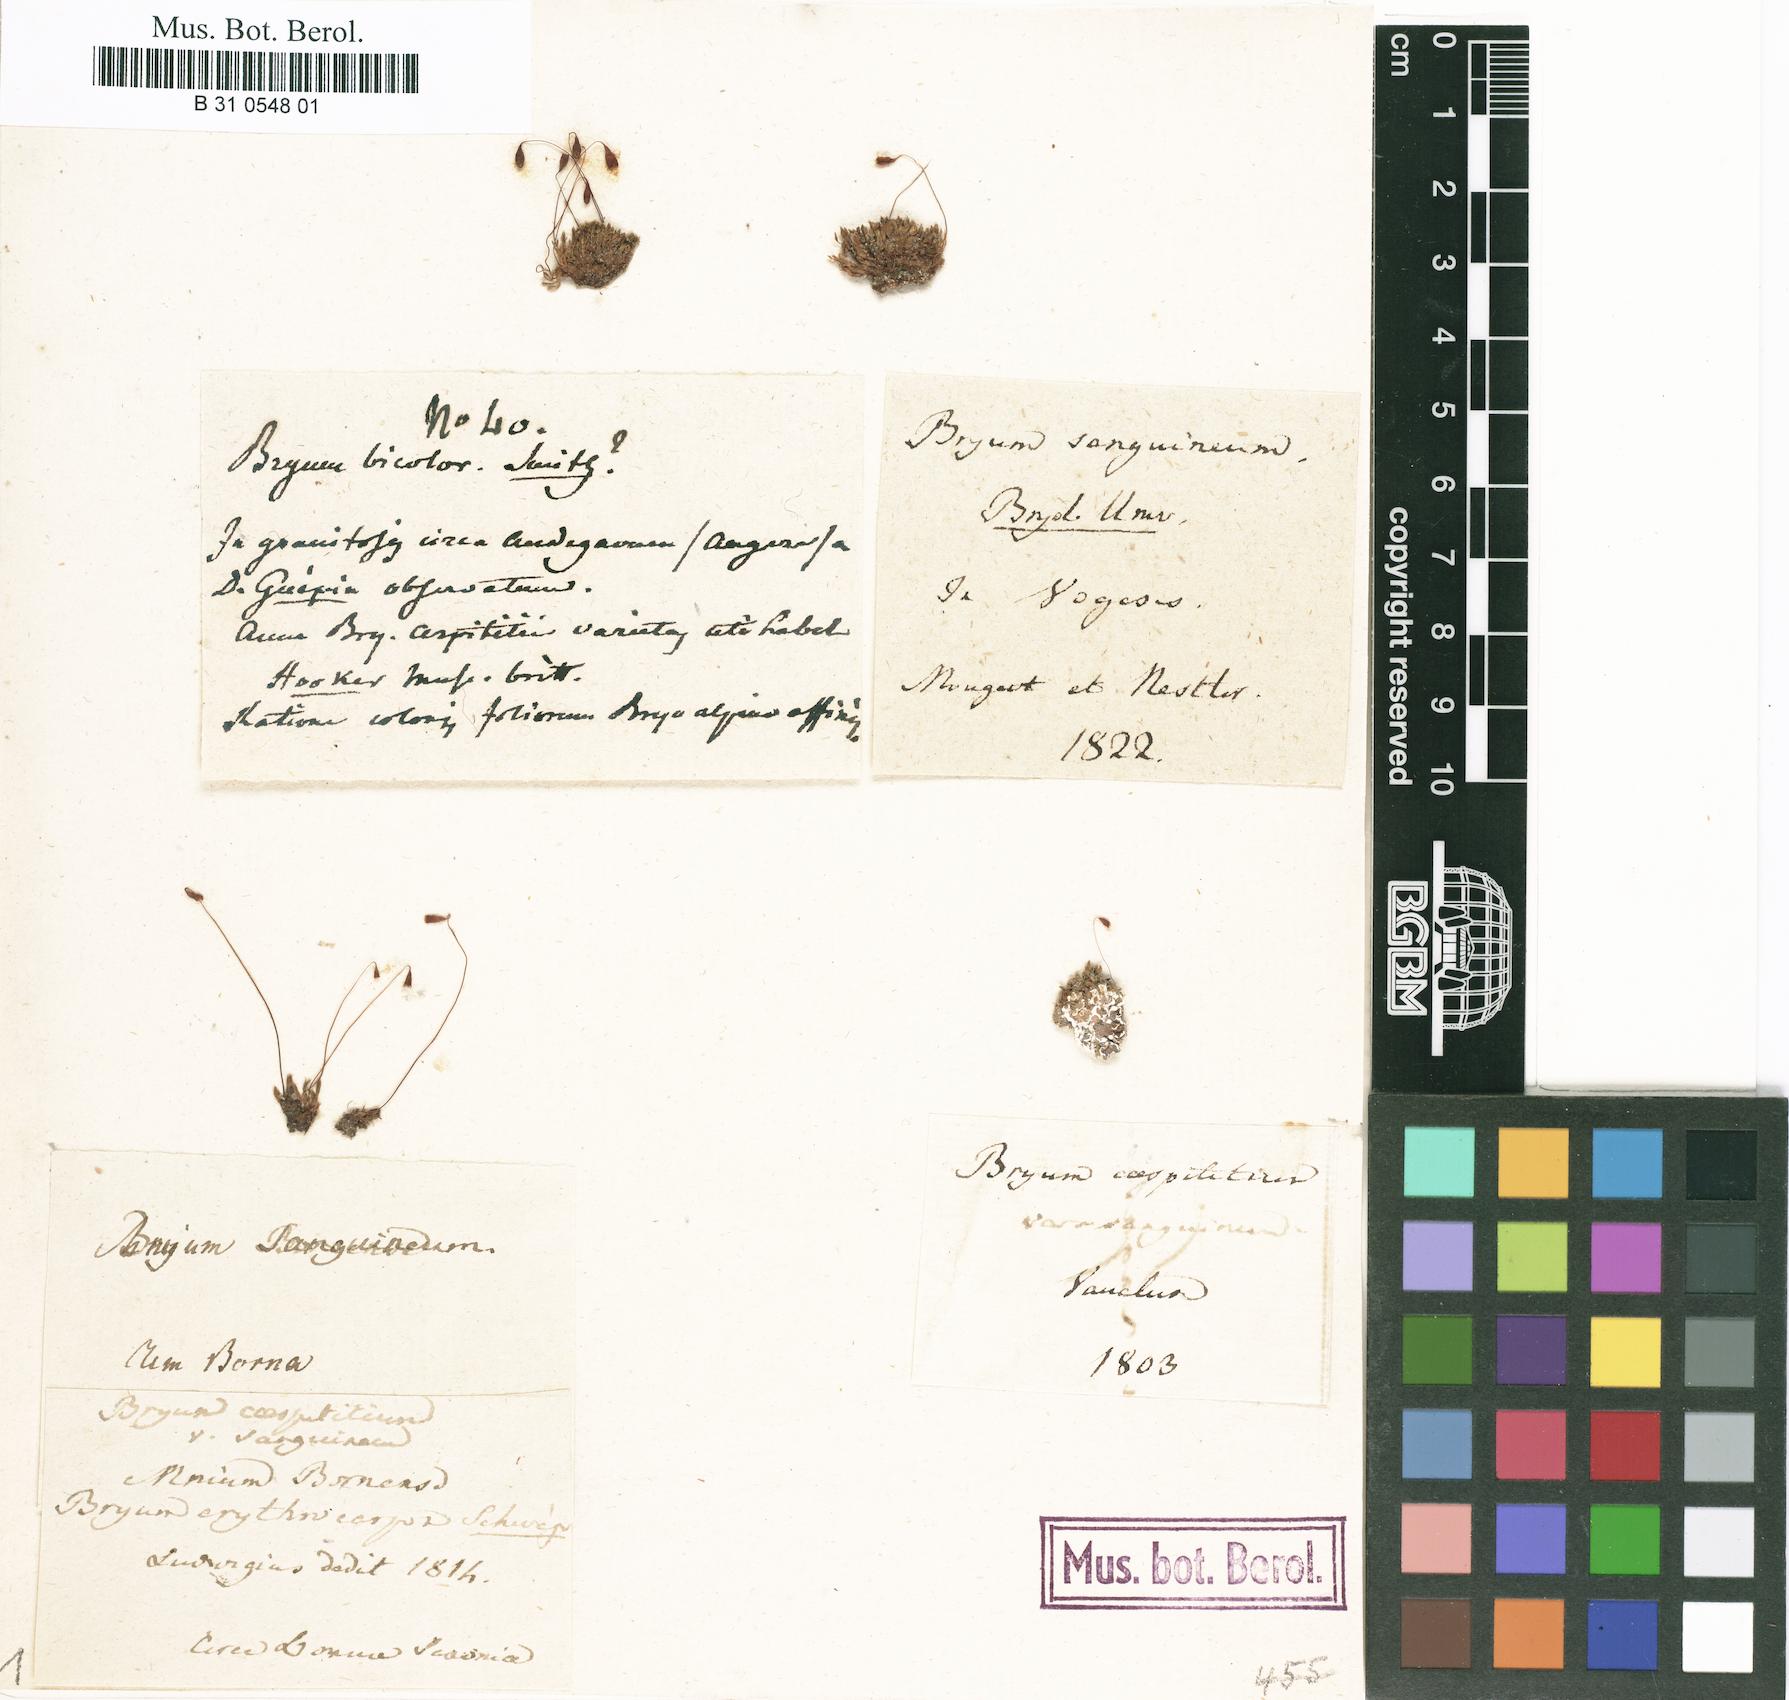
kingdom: Plantae
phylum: Bryophyta
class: Bryopsida
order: Bryales
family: Bryaceae
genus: Bryum
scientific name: Bryum atrovirens
